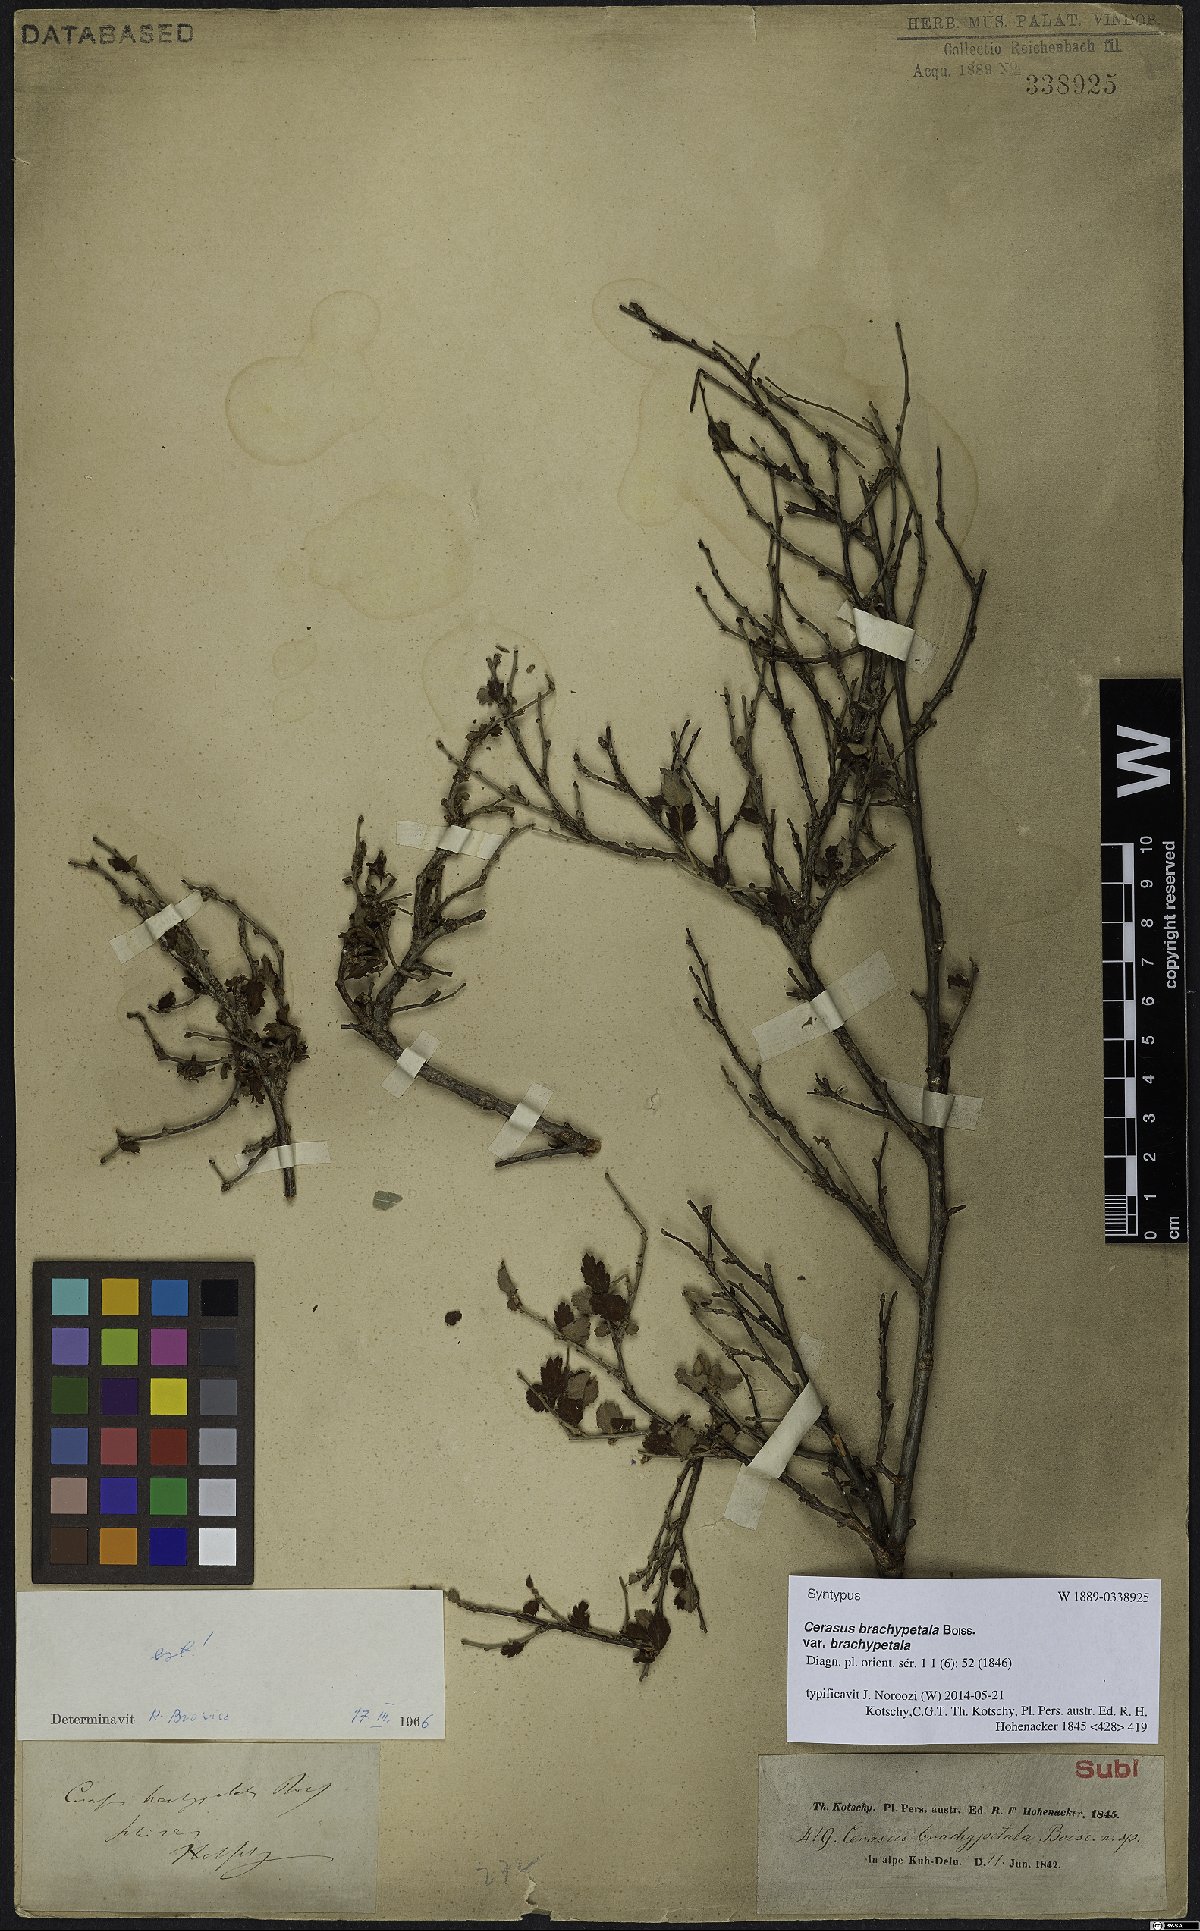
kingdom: Plantae
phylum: Tracheophyta
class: Magnoliopsida
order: Rosales
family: Rosaceae
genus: Prunus
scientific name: Prunus brachypetala
